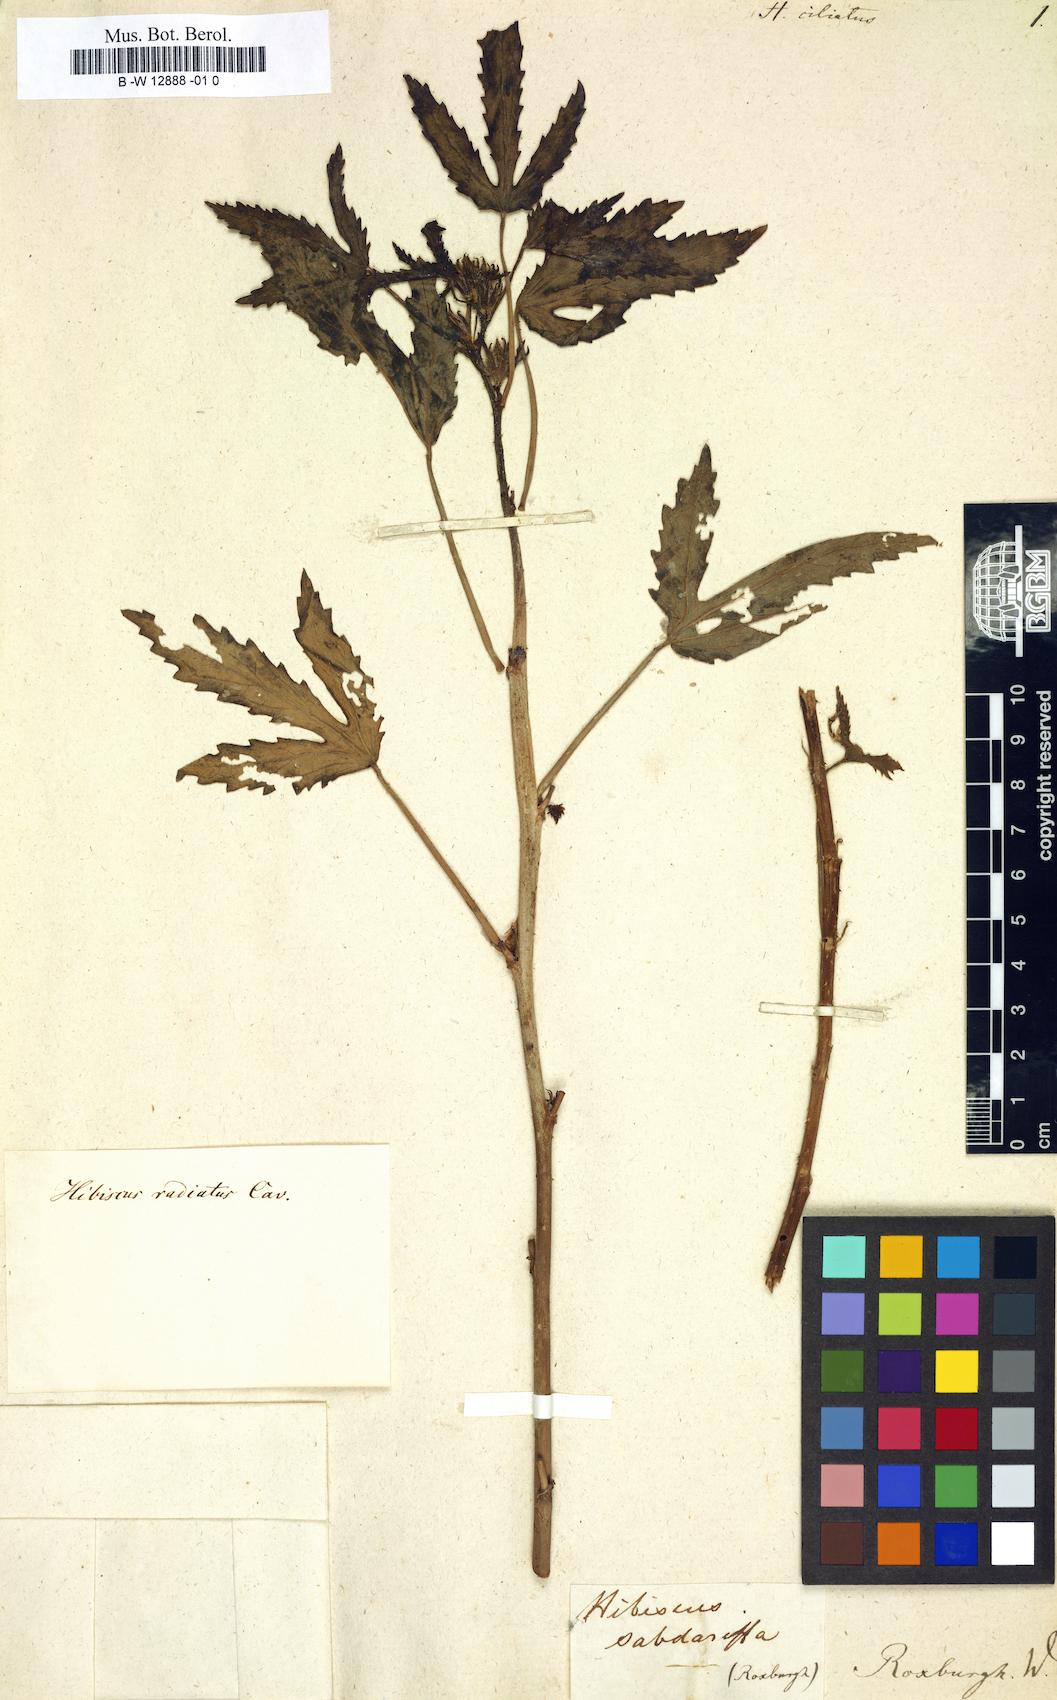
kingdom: Plantae
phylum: Tracheophyta
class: Magnoliopsida
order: Malvales
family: Malvaceae
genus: Perrierophytum
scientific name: Perrierophytum velutinum
